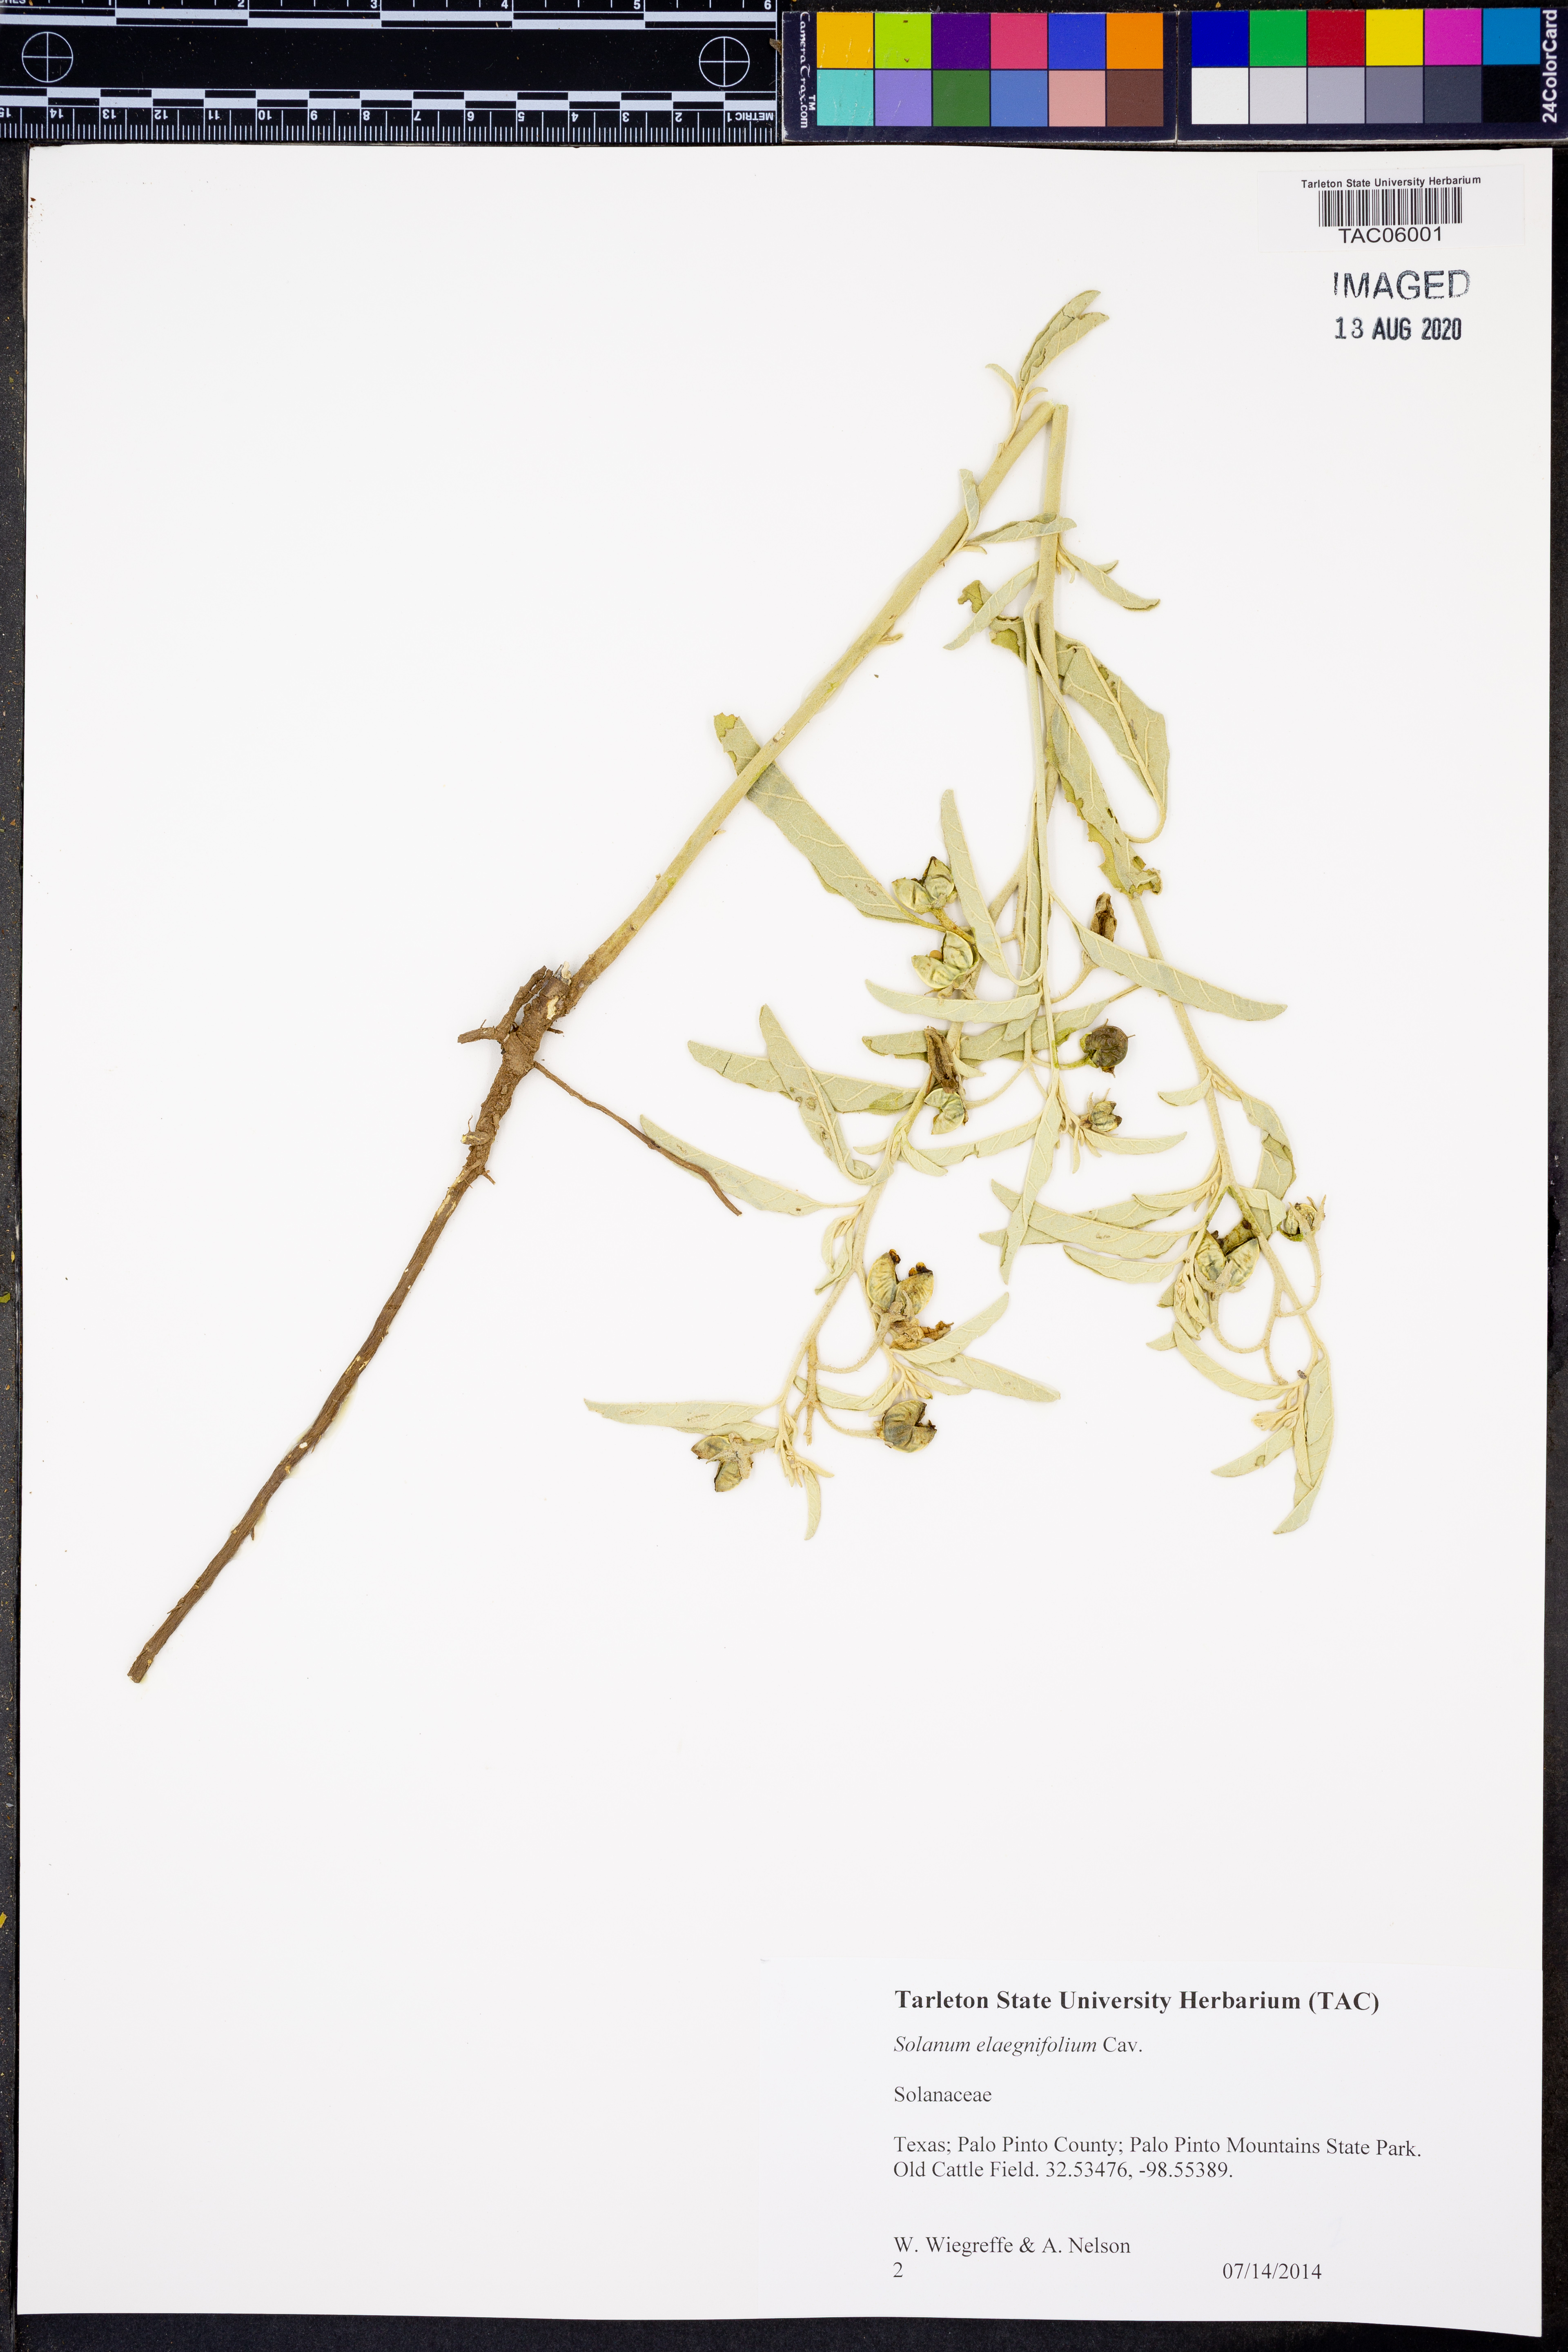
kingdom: Plantae
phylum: Tracheophyta
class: Magnoliopsida
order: Solanales
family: Solanaceae
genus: Solanum
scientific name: Solanum elaeagnifolium
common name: Silverleaf nightshade
